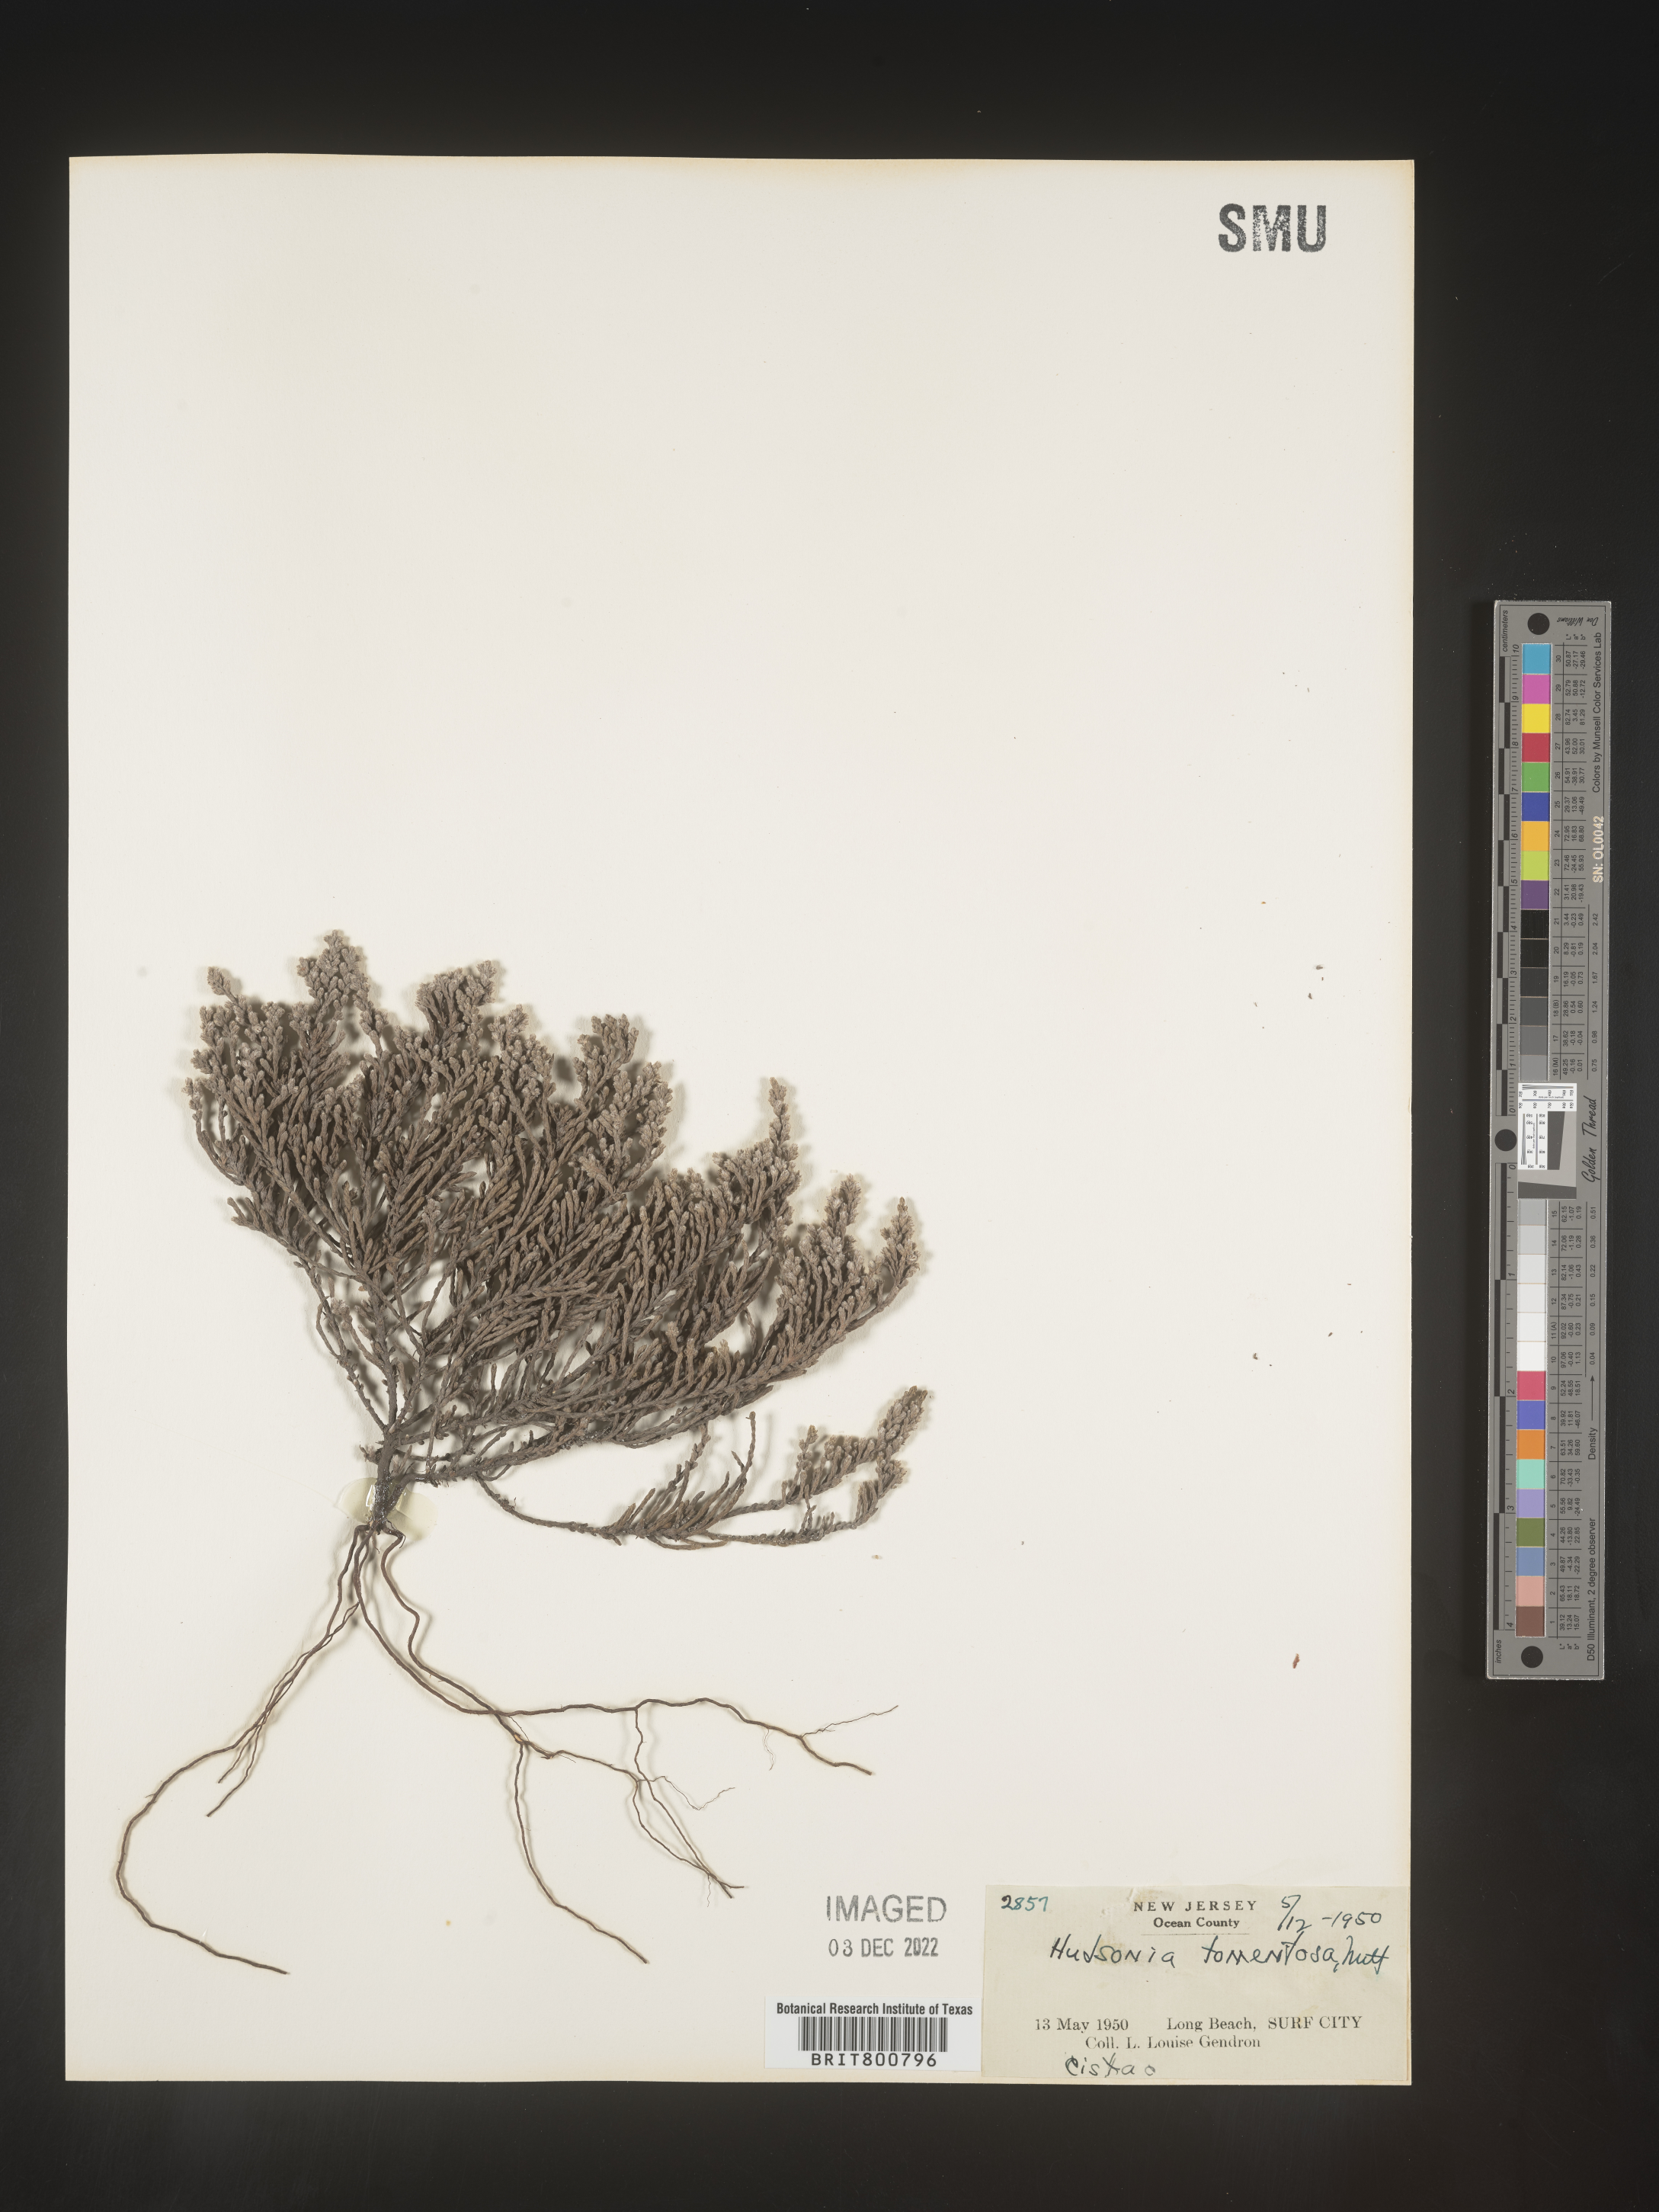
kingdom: Plantae
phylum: Tracheophyta
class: Magnoliopsida
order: Malvales
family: Cistaceae
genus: Hudsonia
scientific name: Hudsonia tomentosa
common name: Beach-heath
